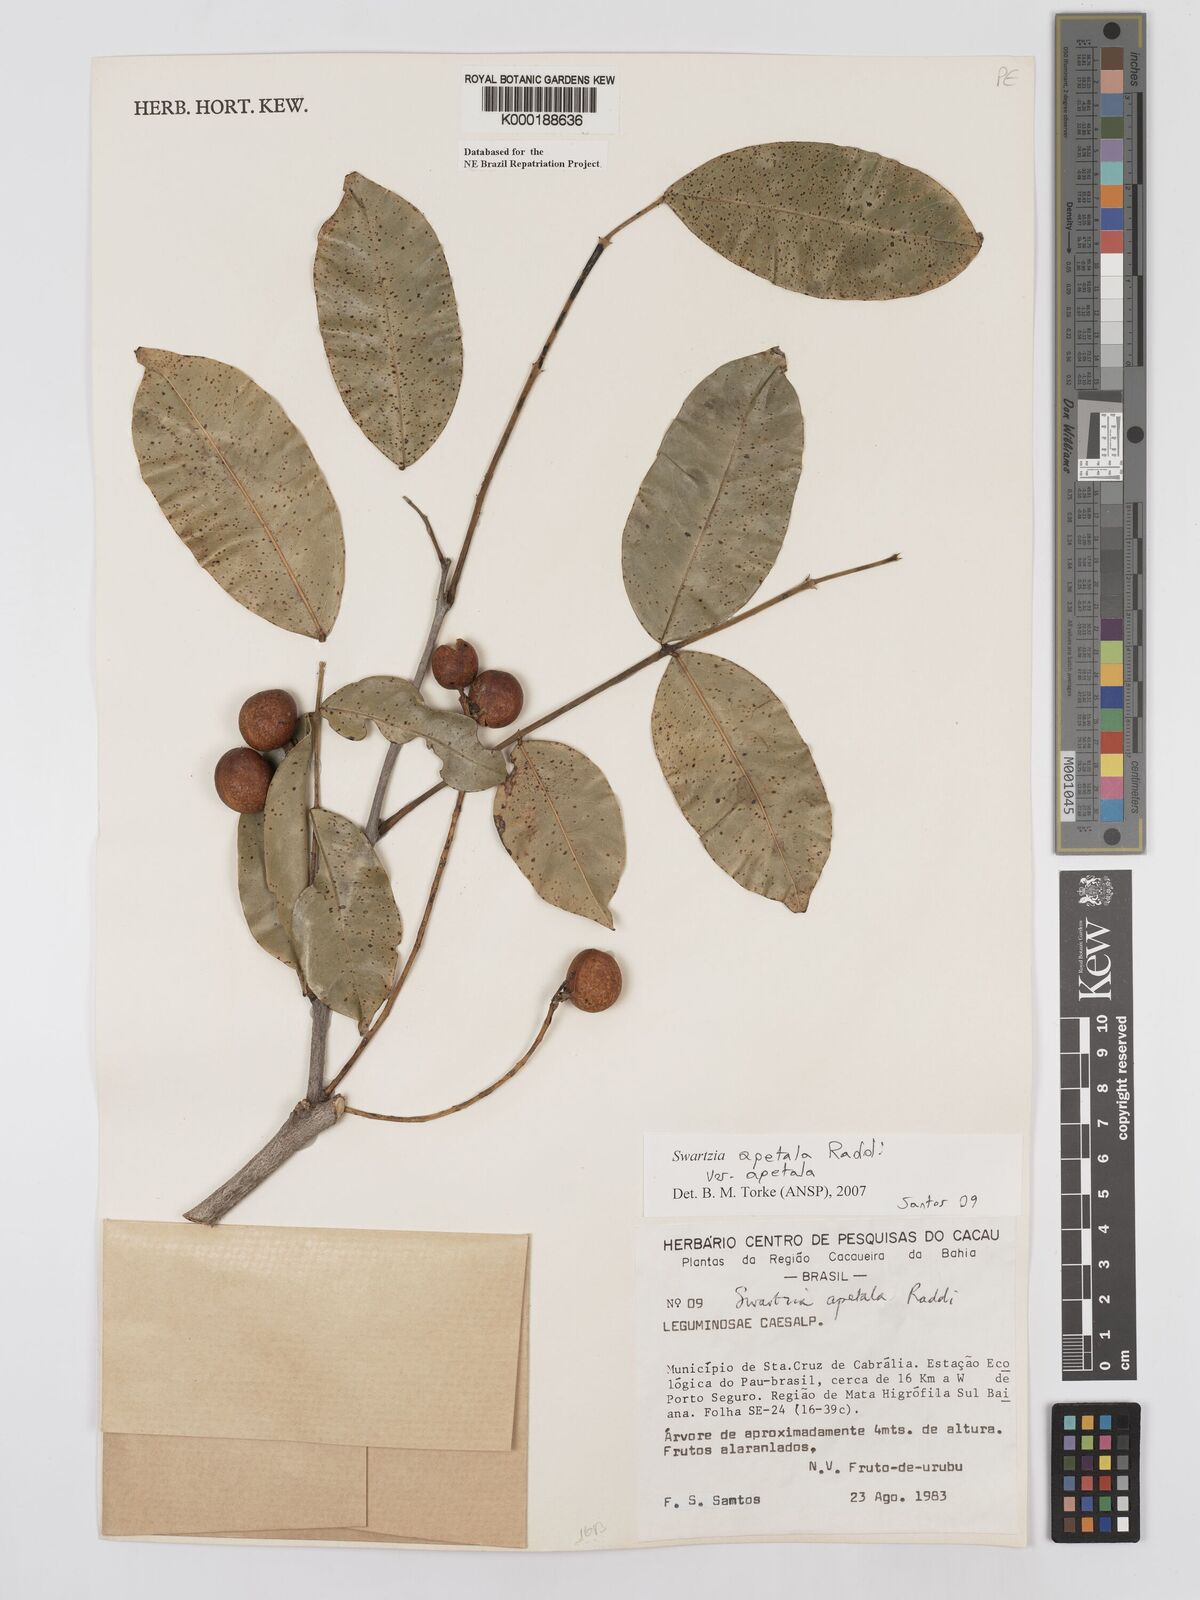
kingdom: Plantae
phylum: Tracheophyta
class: Magnoliopsida
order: Fabales
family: Fabaceae
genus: Swartzia
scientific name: Swartzia apetala
